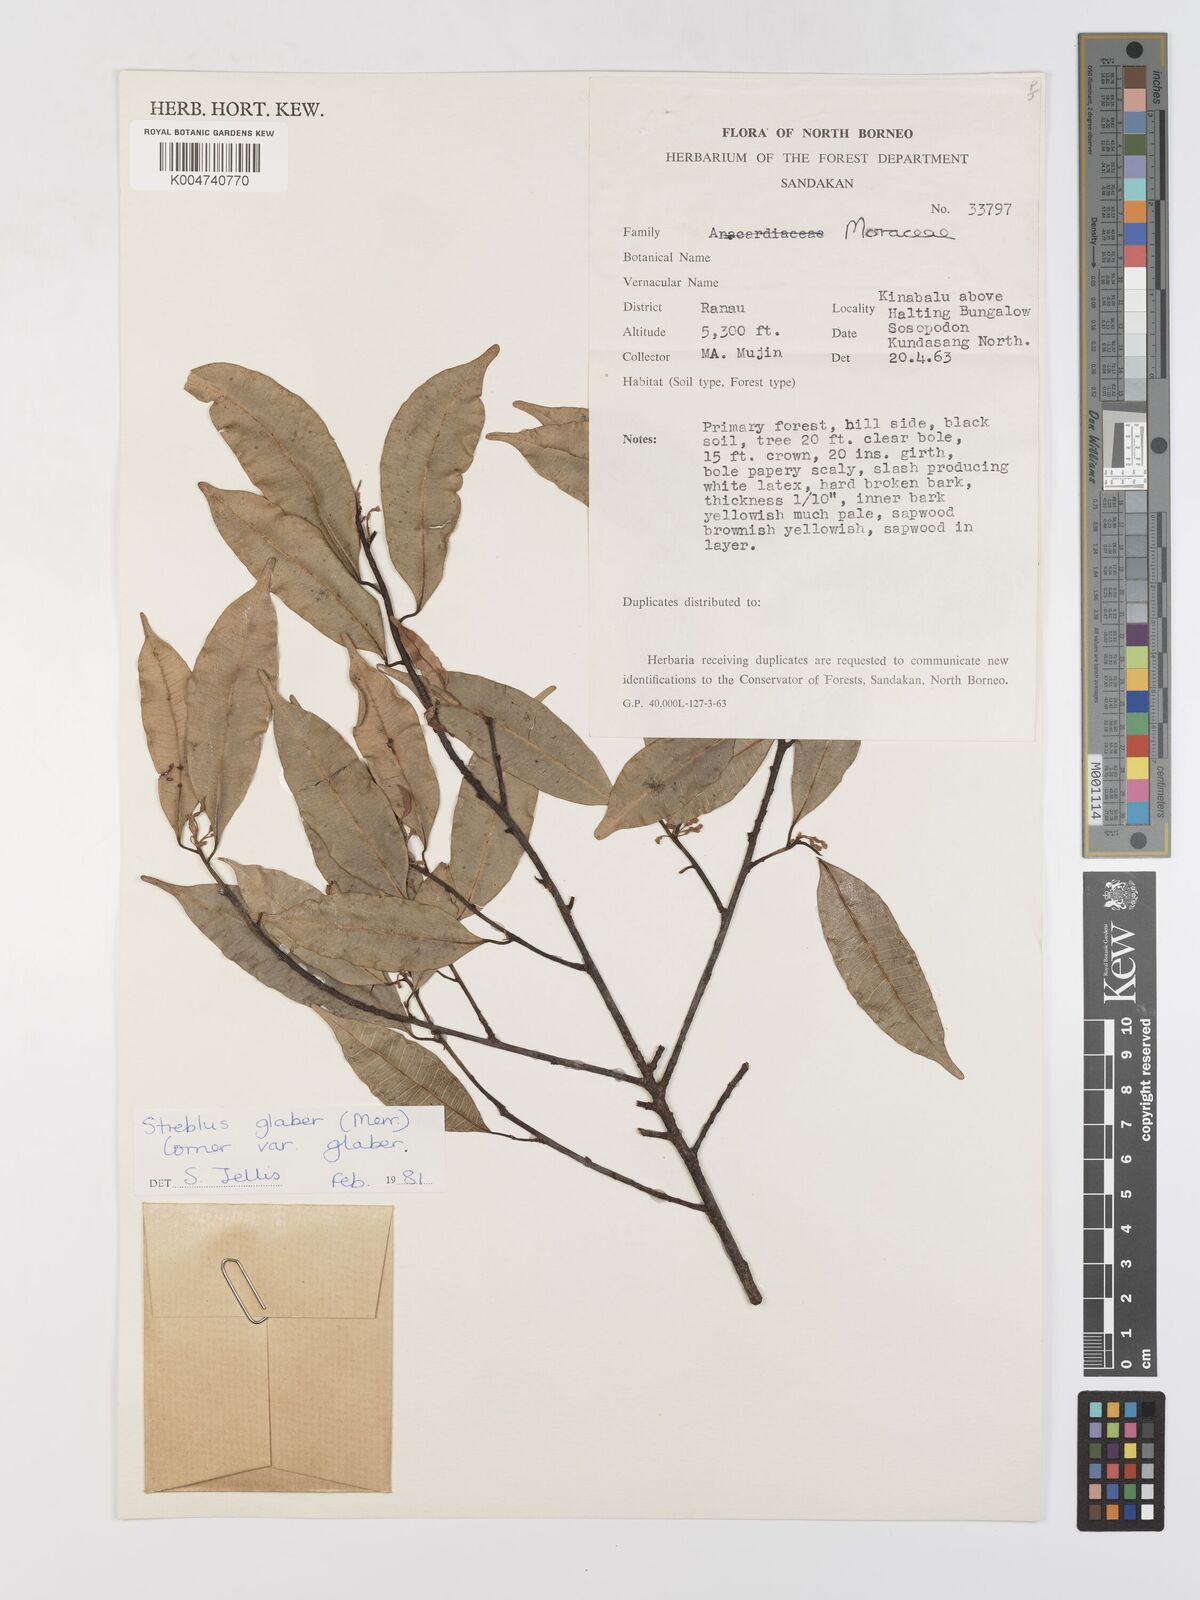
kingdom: Plantae
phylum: Tracheophyta
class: Magnoliopsida
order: Rosales
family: Moraceae
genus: Paratrophis
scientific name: Paratrophis glabra
